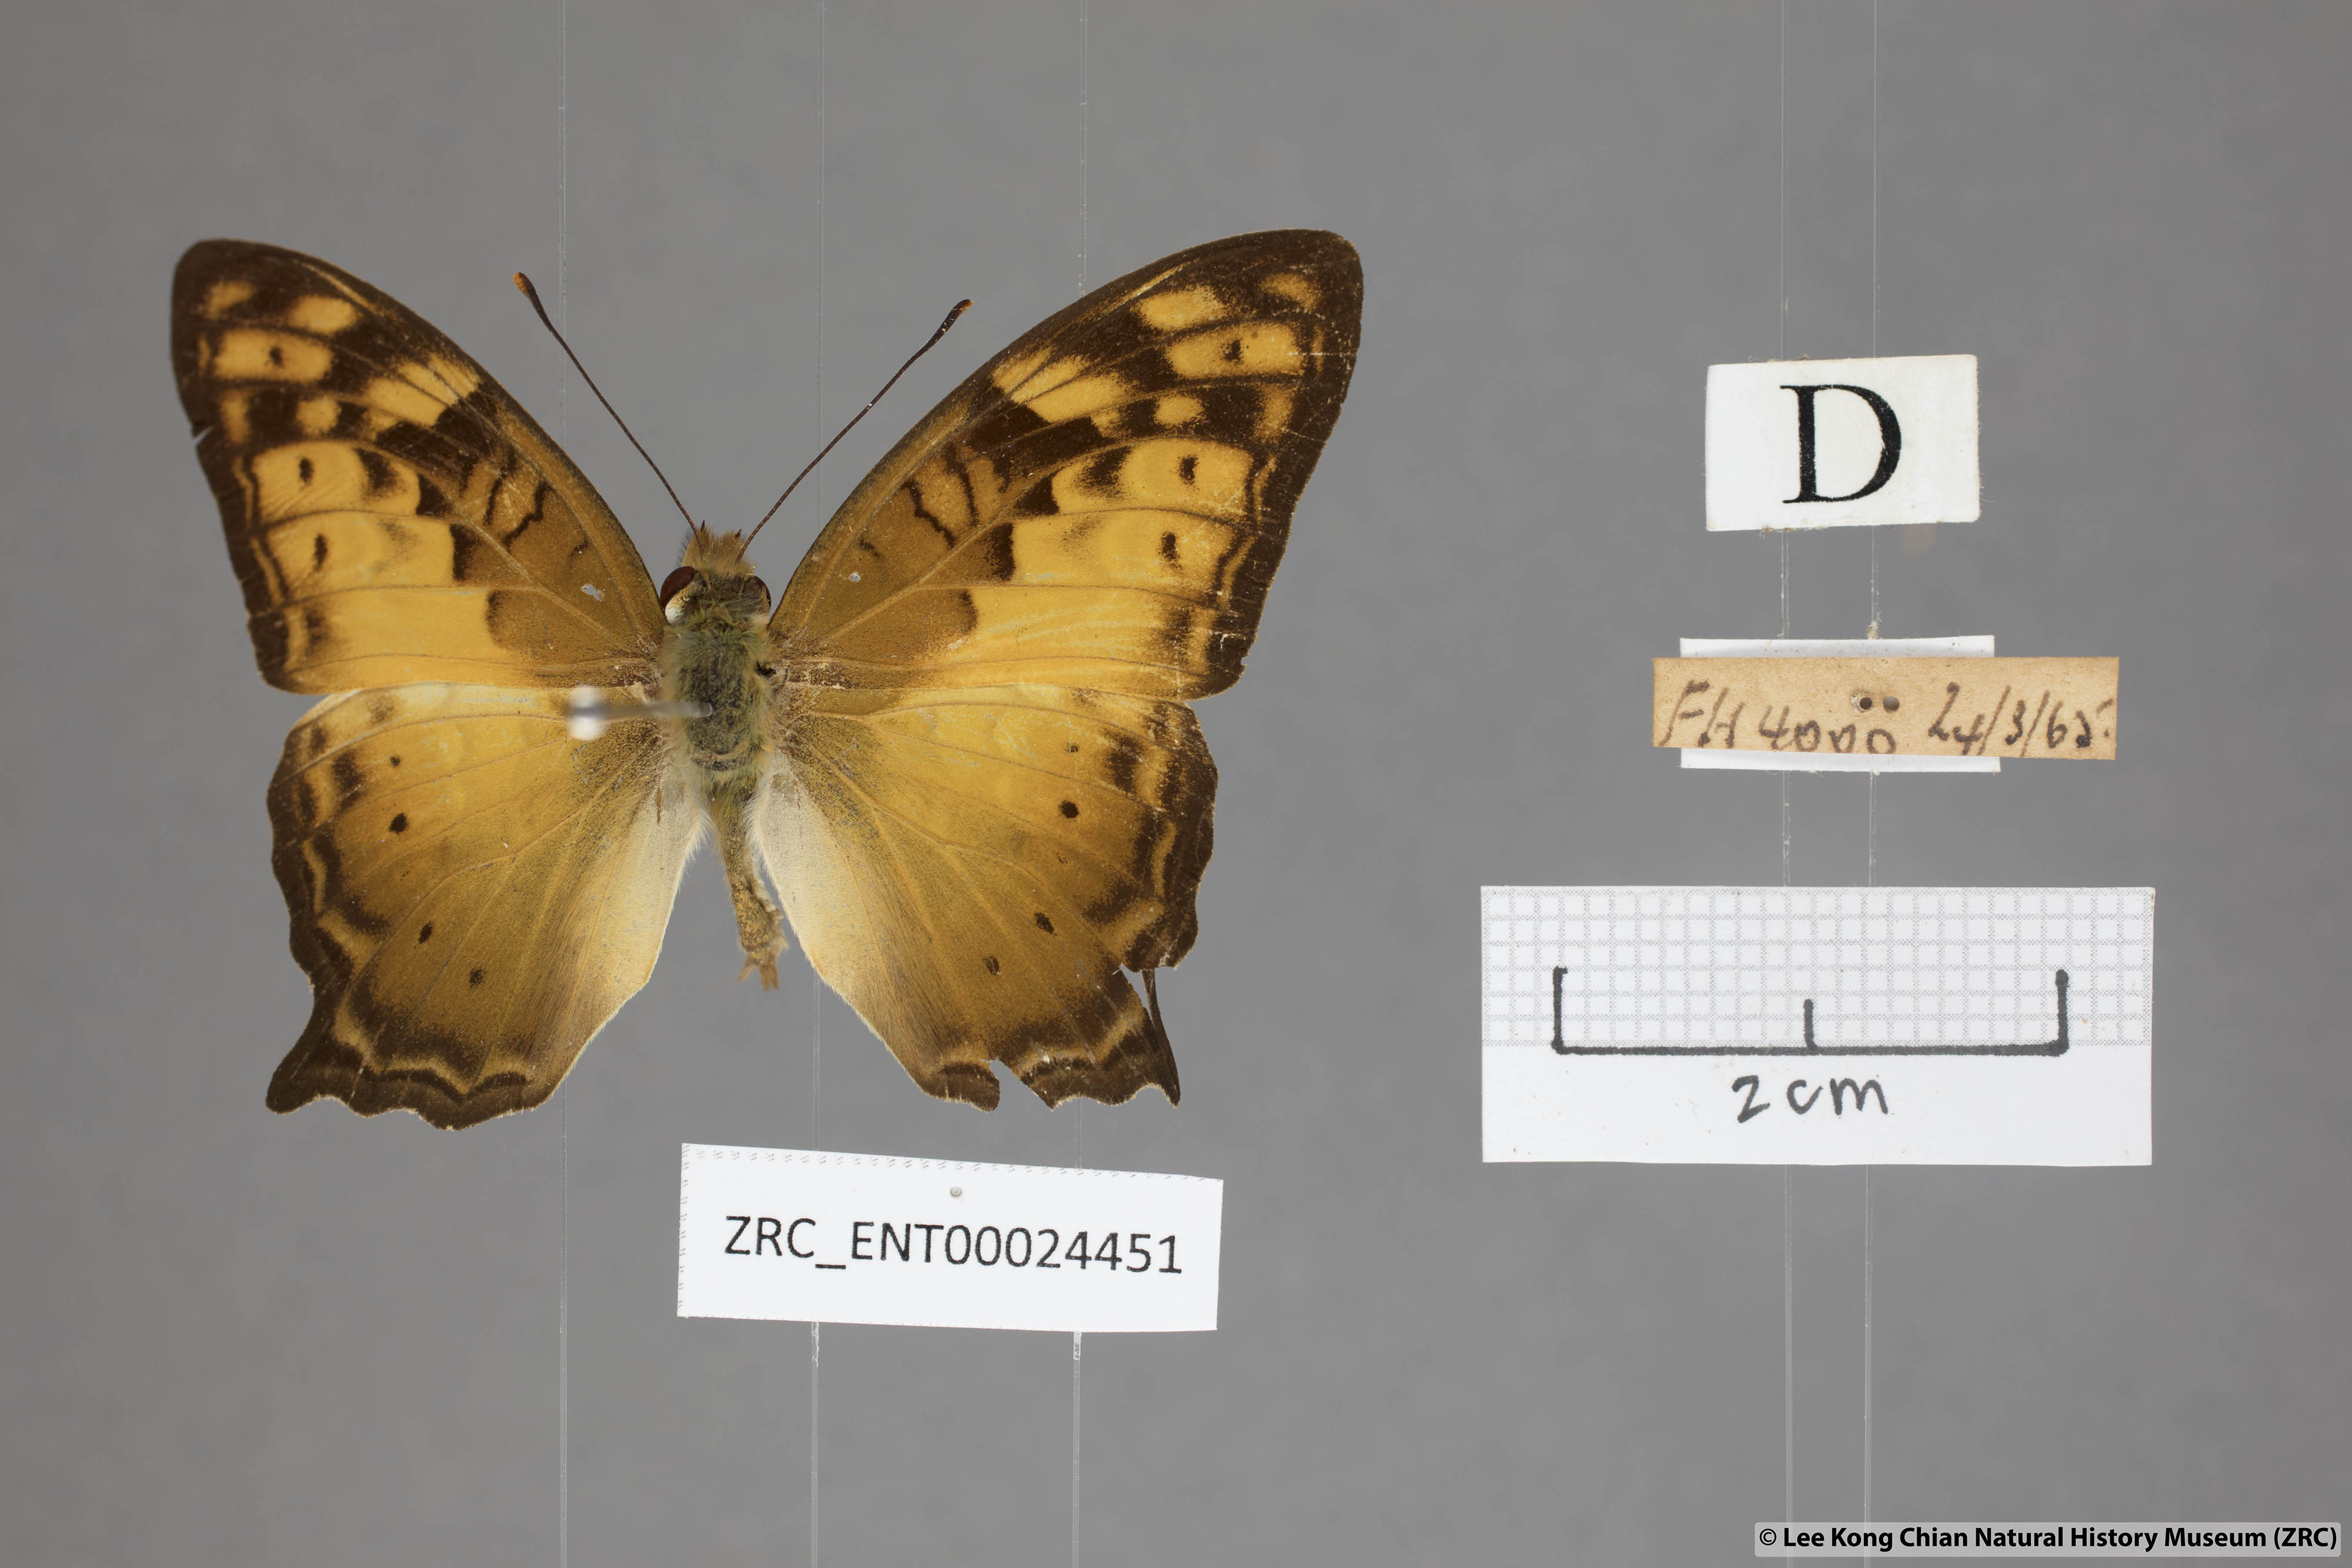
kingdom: Animalia
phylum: Arthropoda
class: Insecta
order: Lepidoptera
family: Nymphalidae
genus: Vagrans
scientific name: Vagrans egista
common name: Tailed rustic
